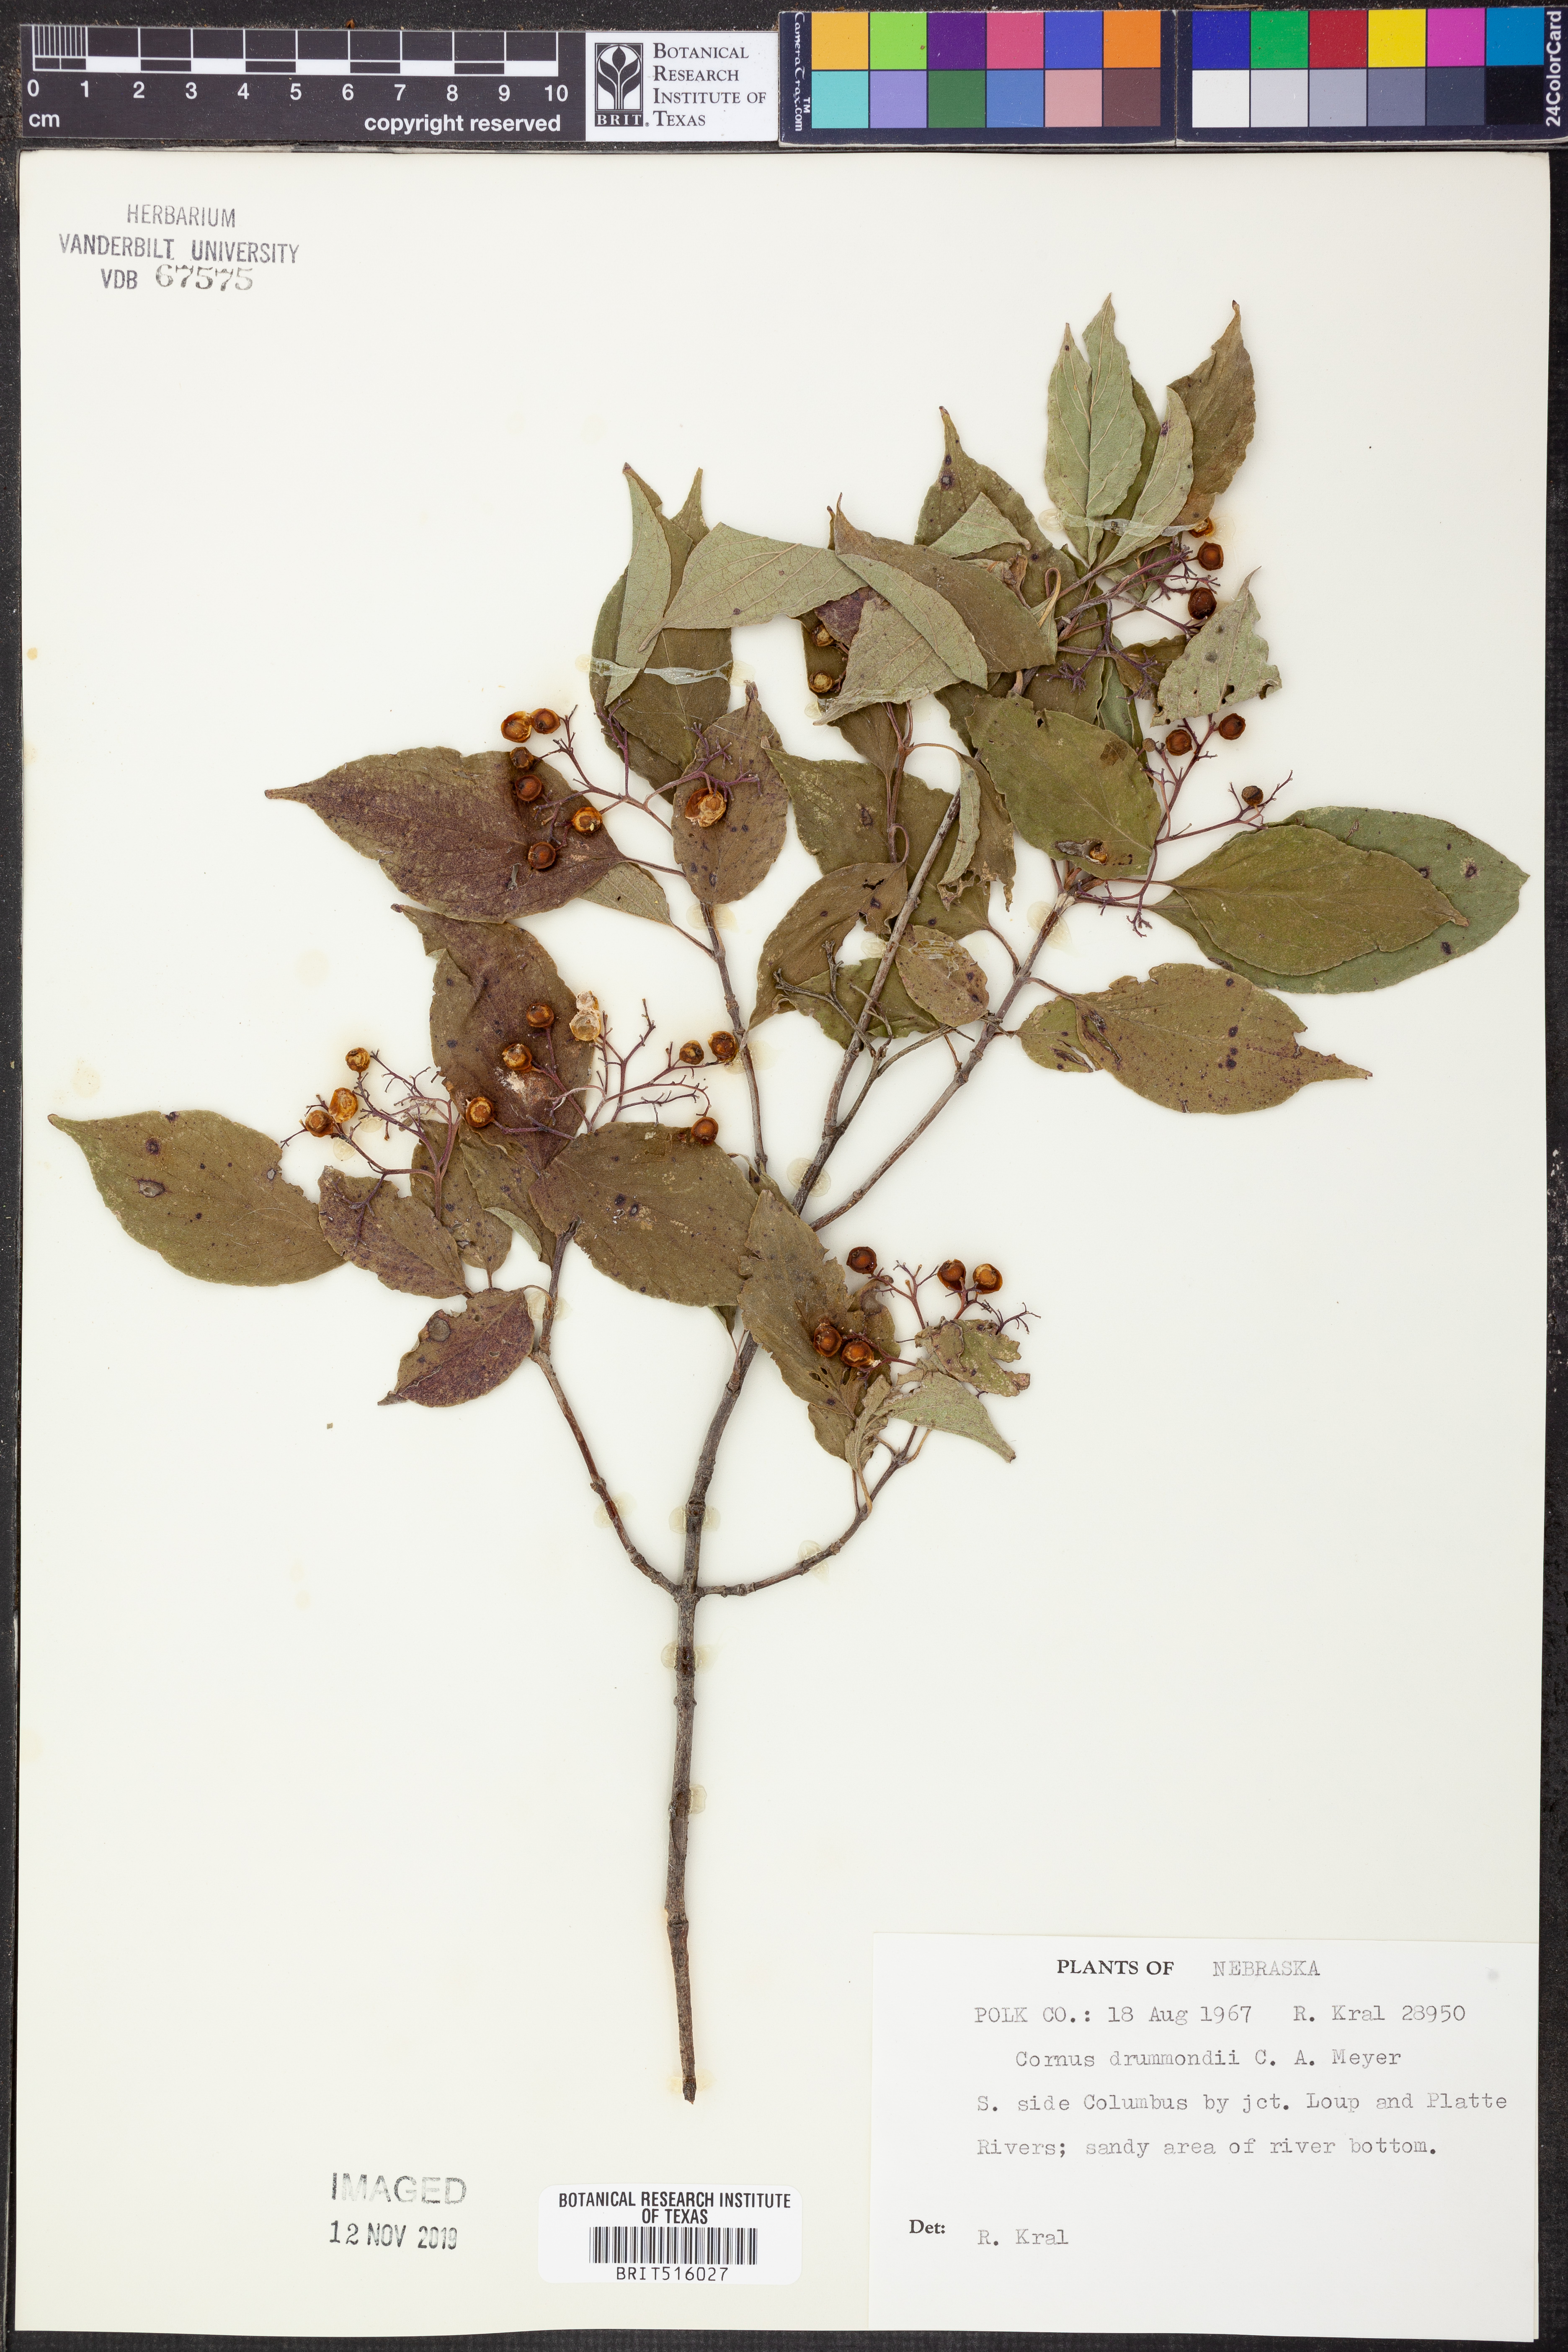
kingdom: Plantae
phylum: Tracheophyta
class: Magnoliopsida
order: Cornales
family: Cornaceae
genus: Cornus
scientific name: Cornus drummondii
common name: Rough-leaf dogwood
